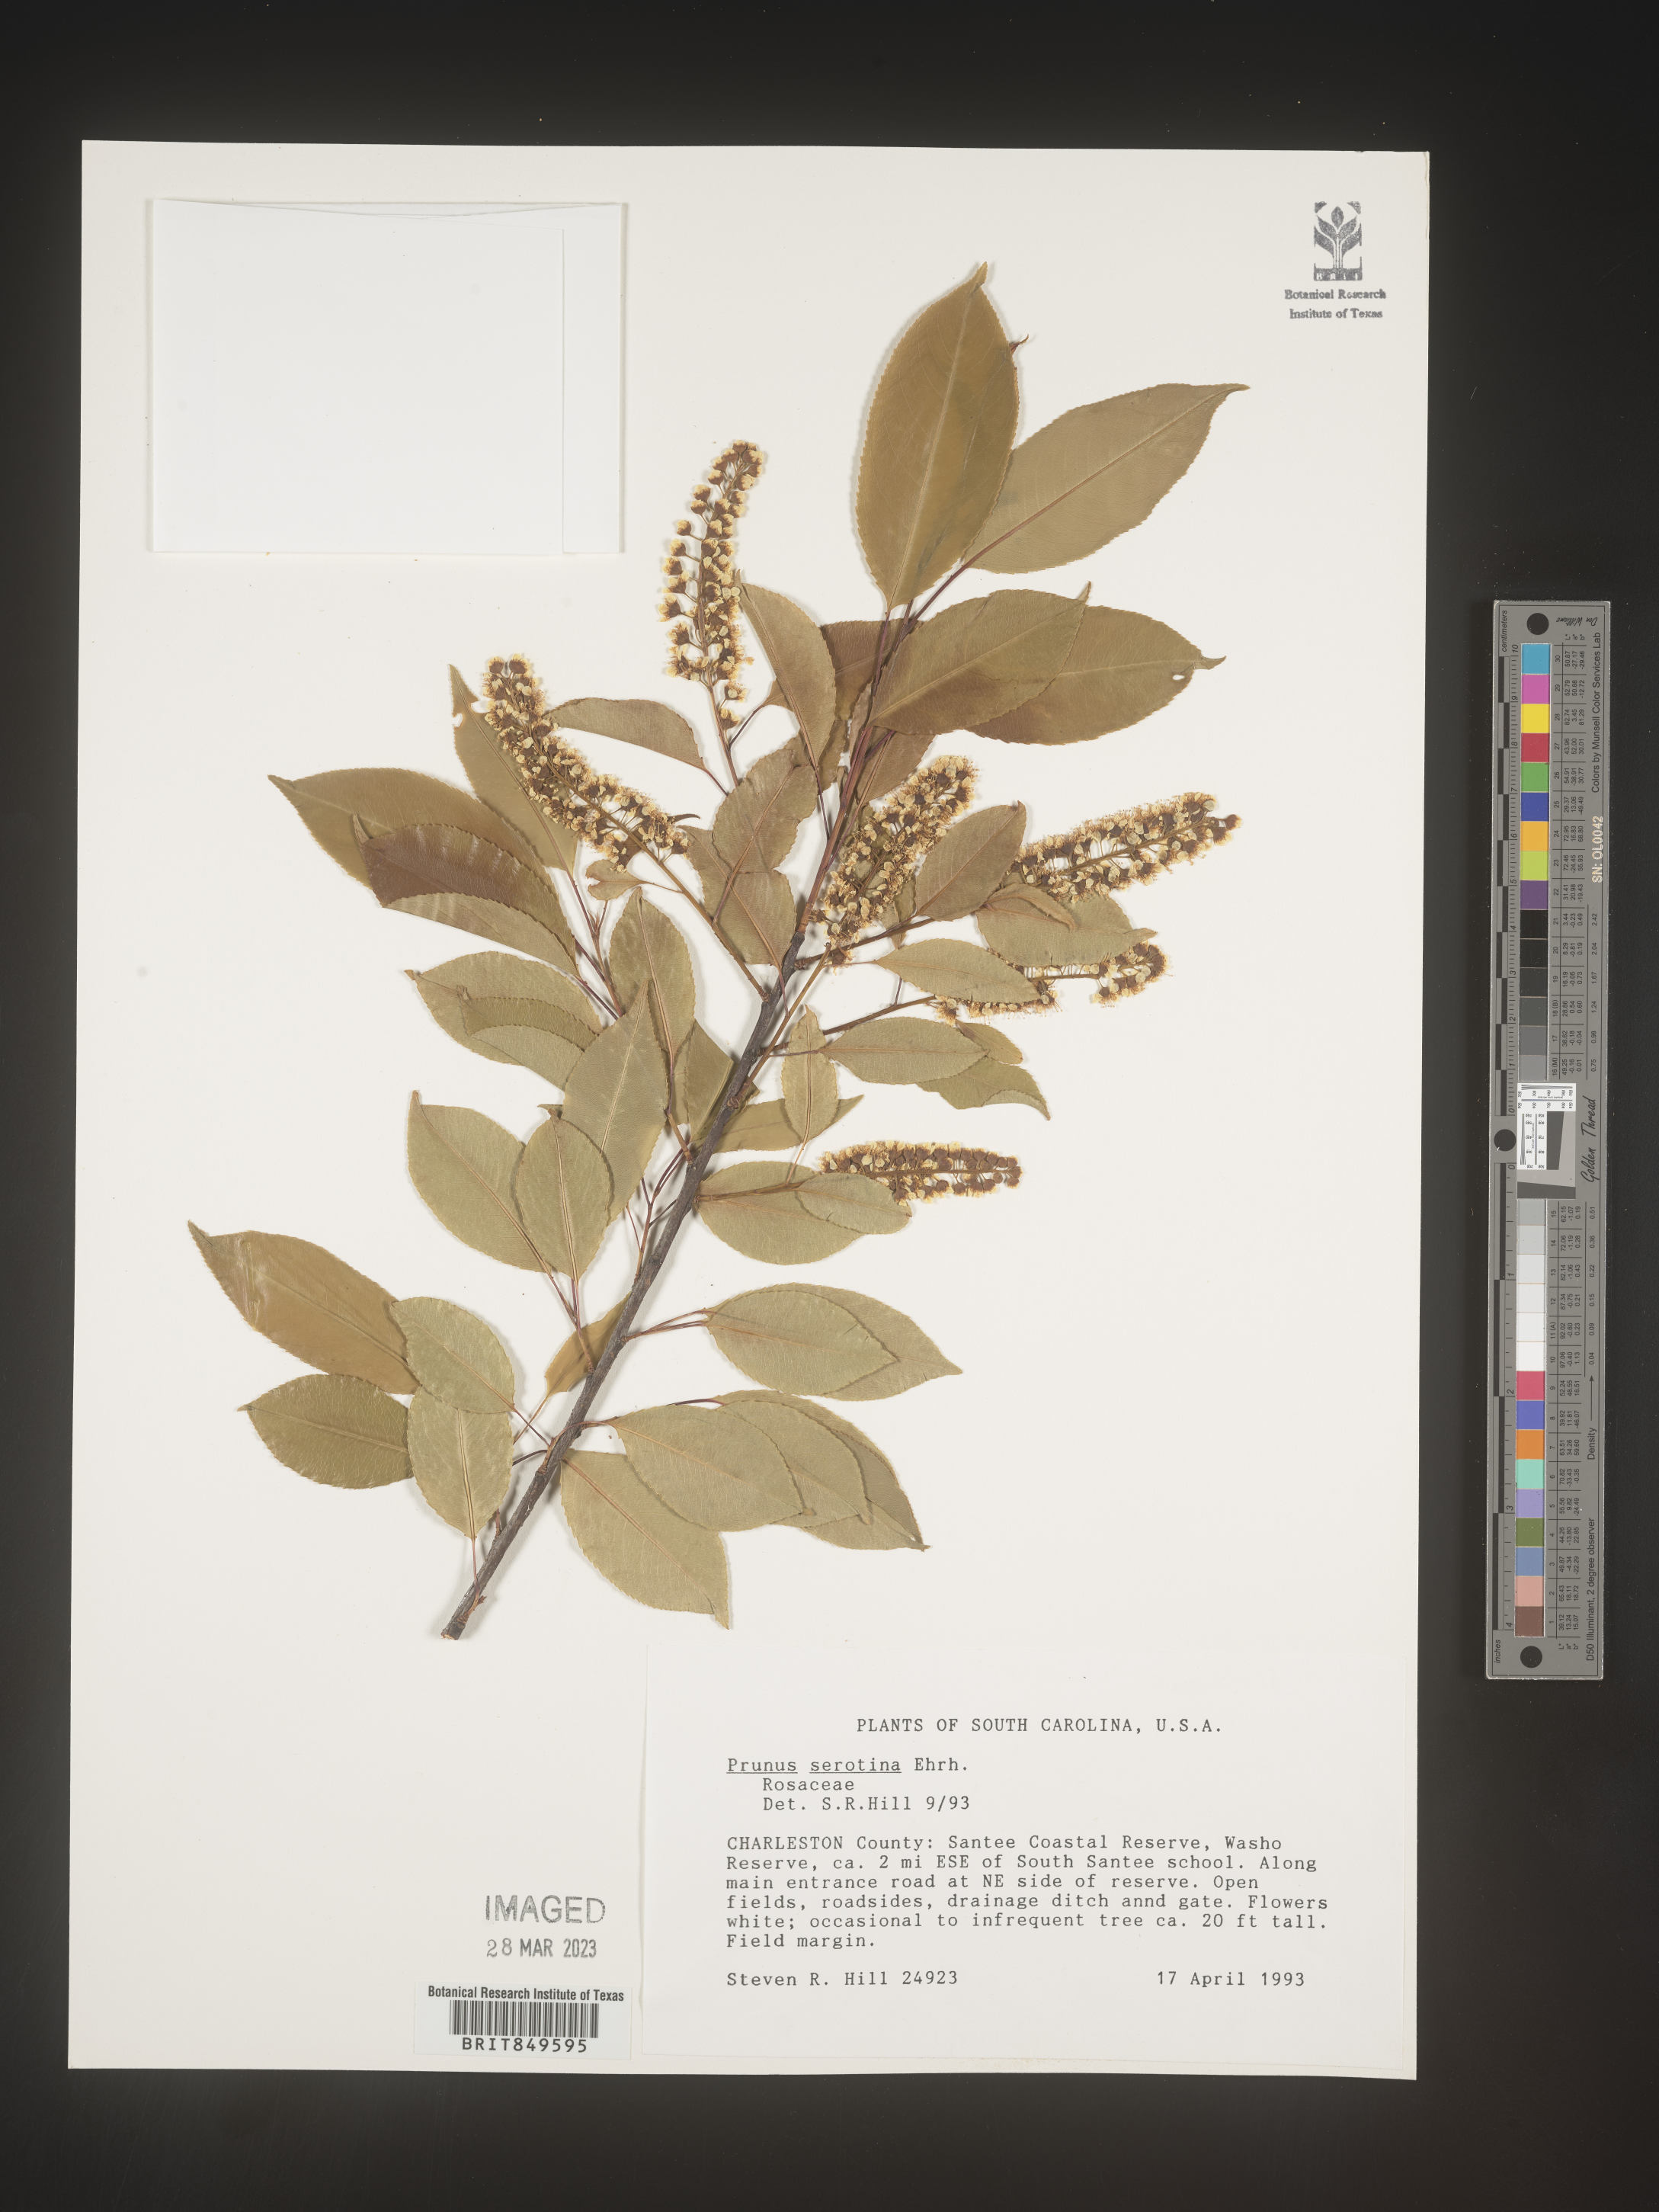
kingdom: Plantae
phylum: Tracheophyta
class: Magnoliopsida
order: Rosales
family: Rosaceae
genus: Prunus
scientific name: Prunus serotina
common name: Black cherry
